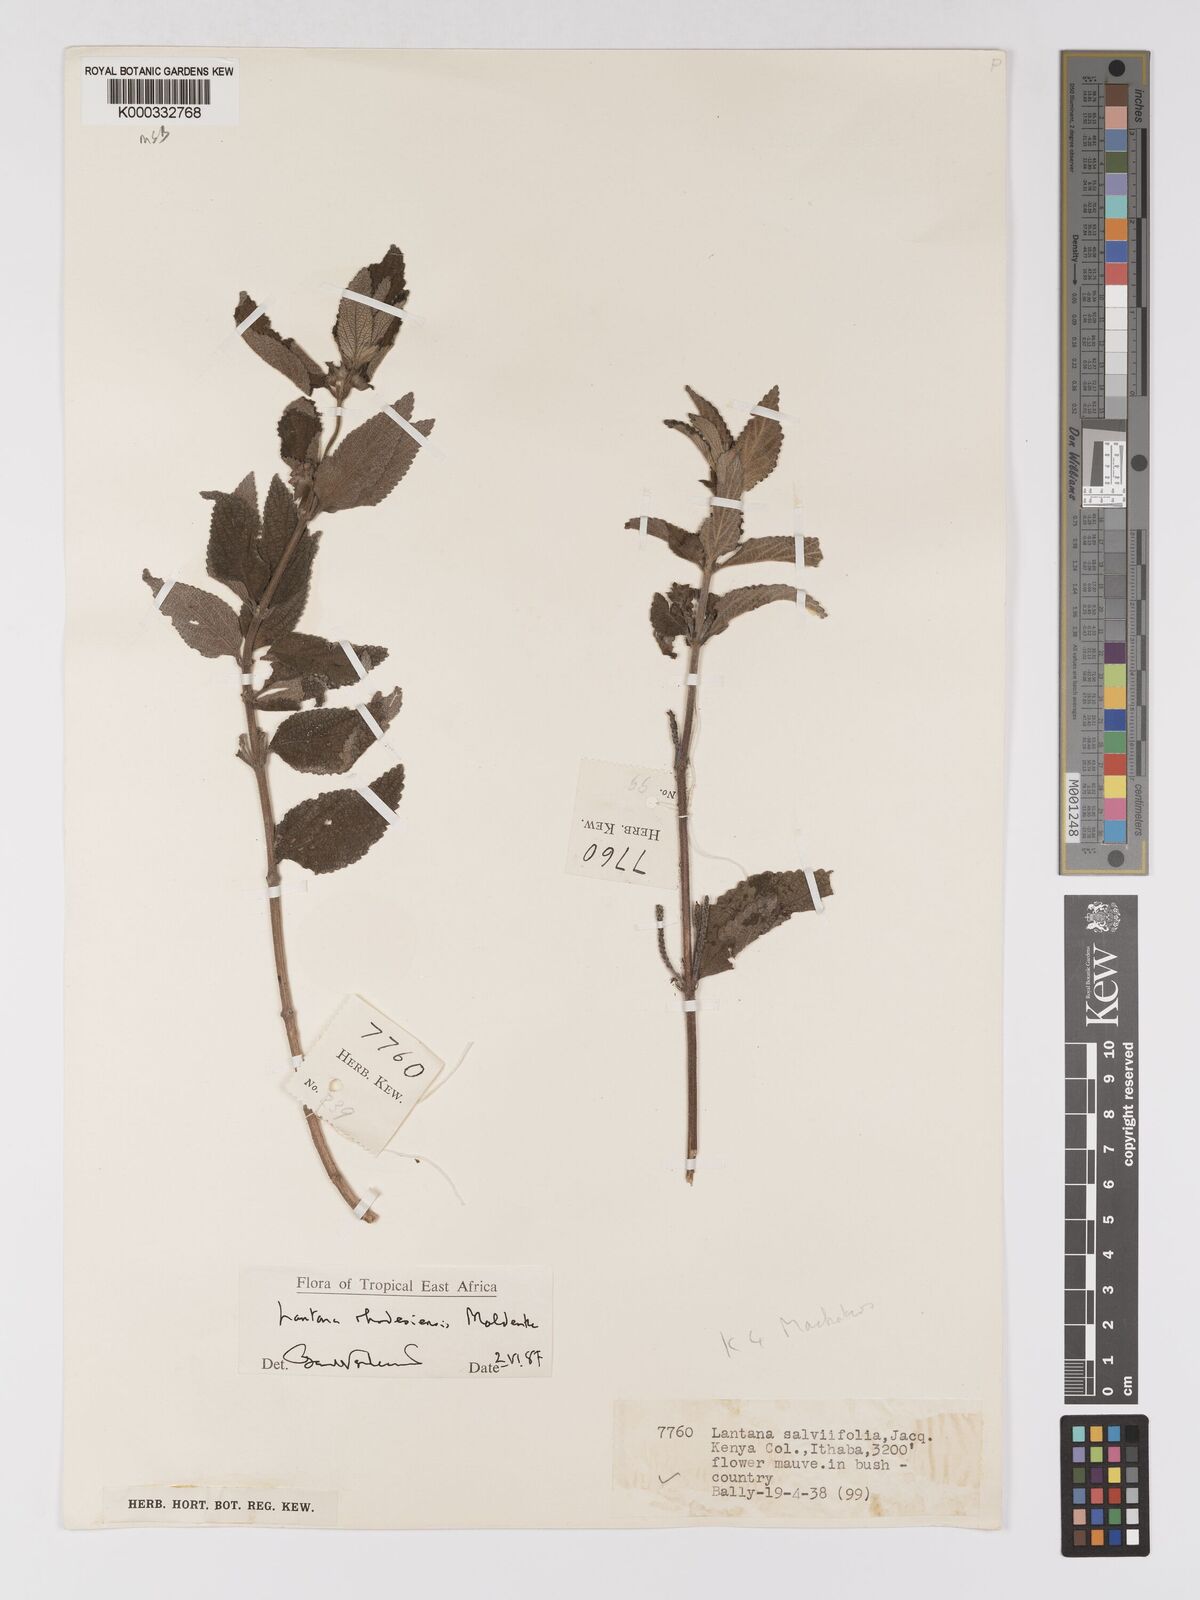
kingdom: Plantae
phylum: Tracheophyta
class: Magnoliopsida
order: Lamiales
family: Verbenaceae
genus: Lantana
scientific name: Lantana ukambensis
